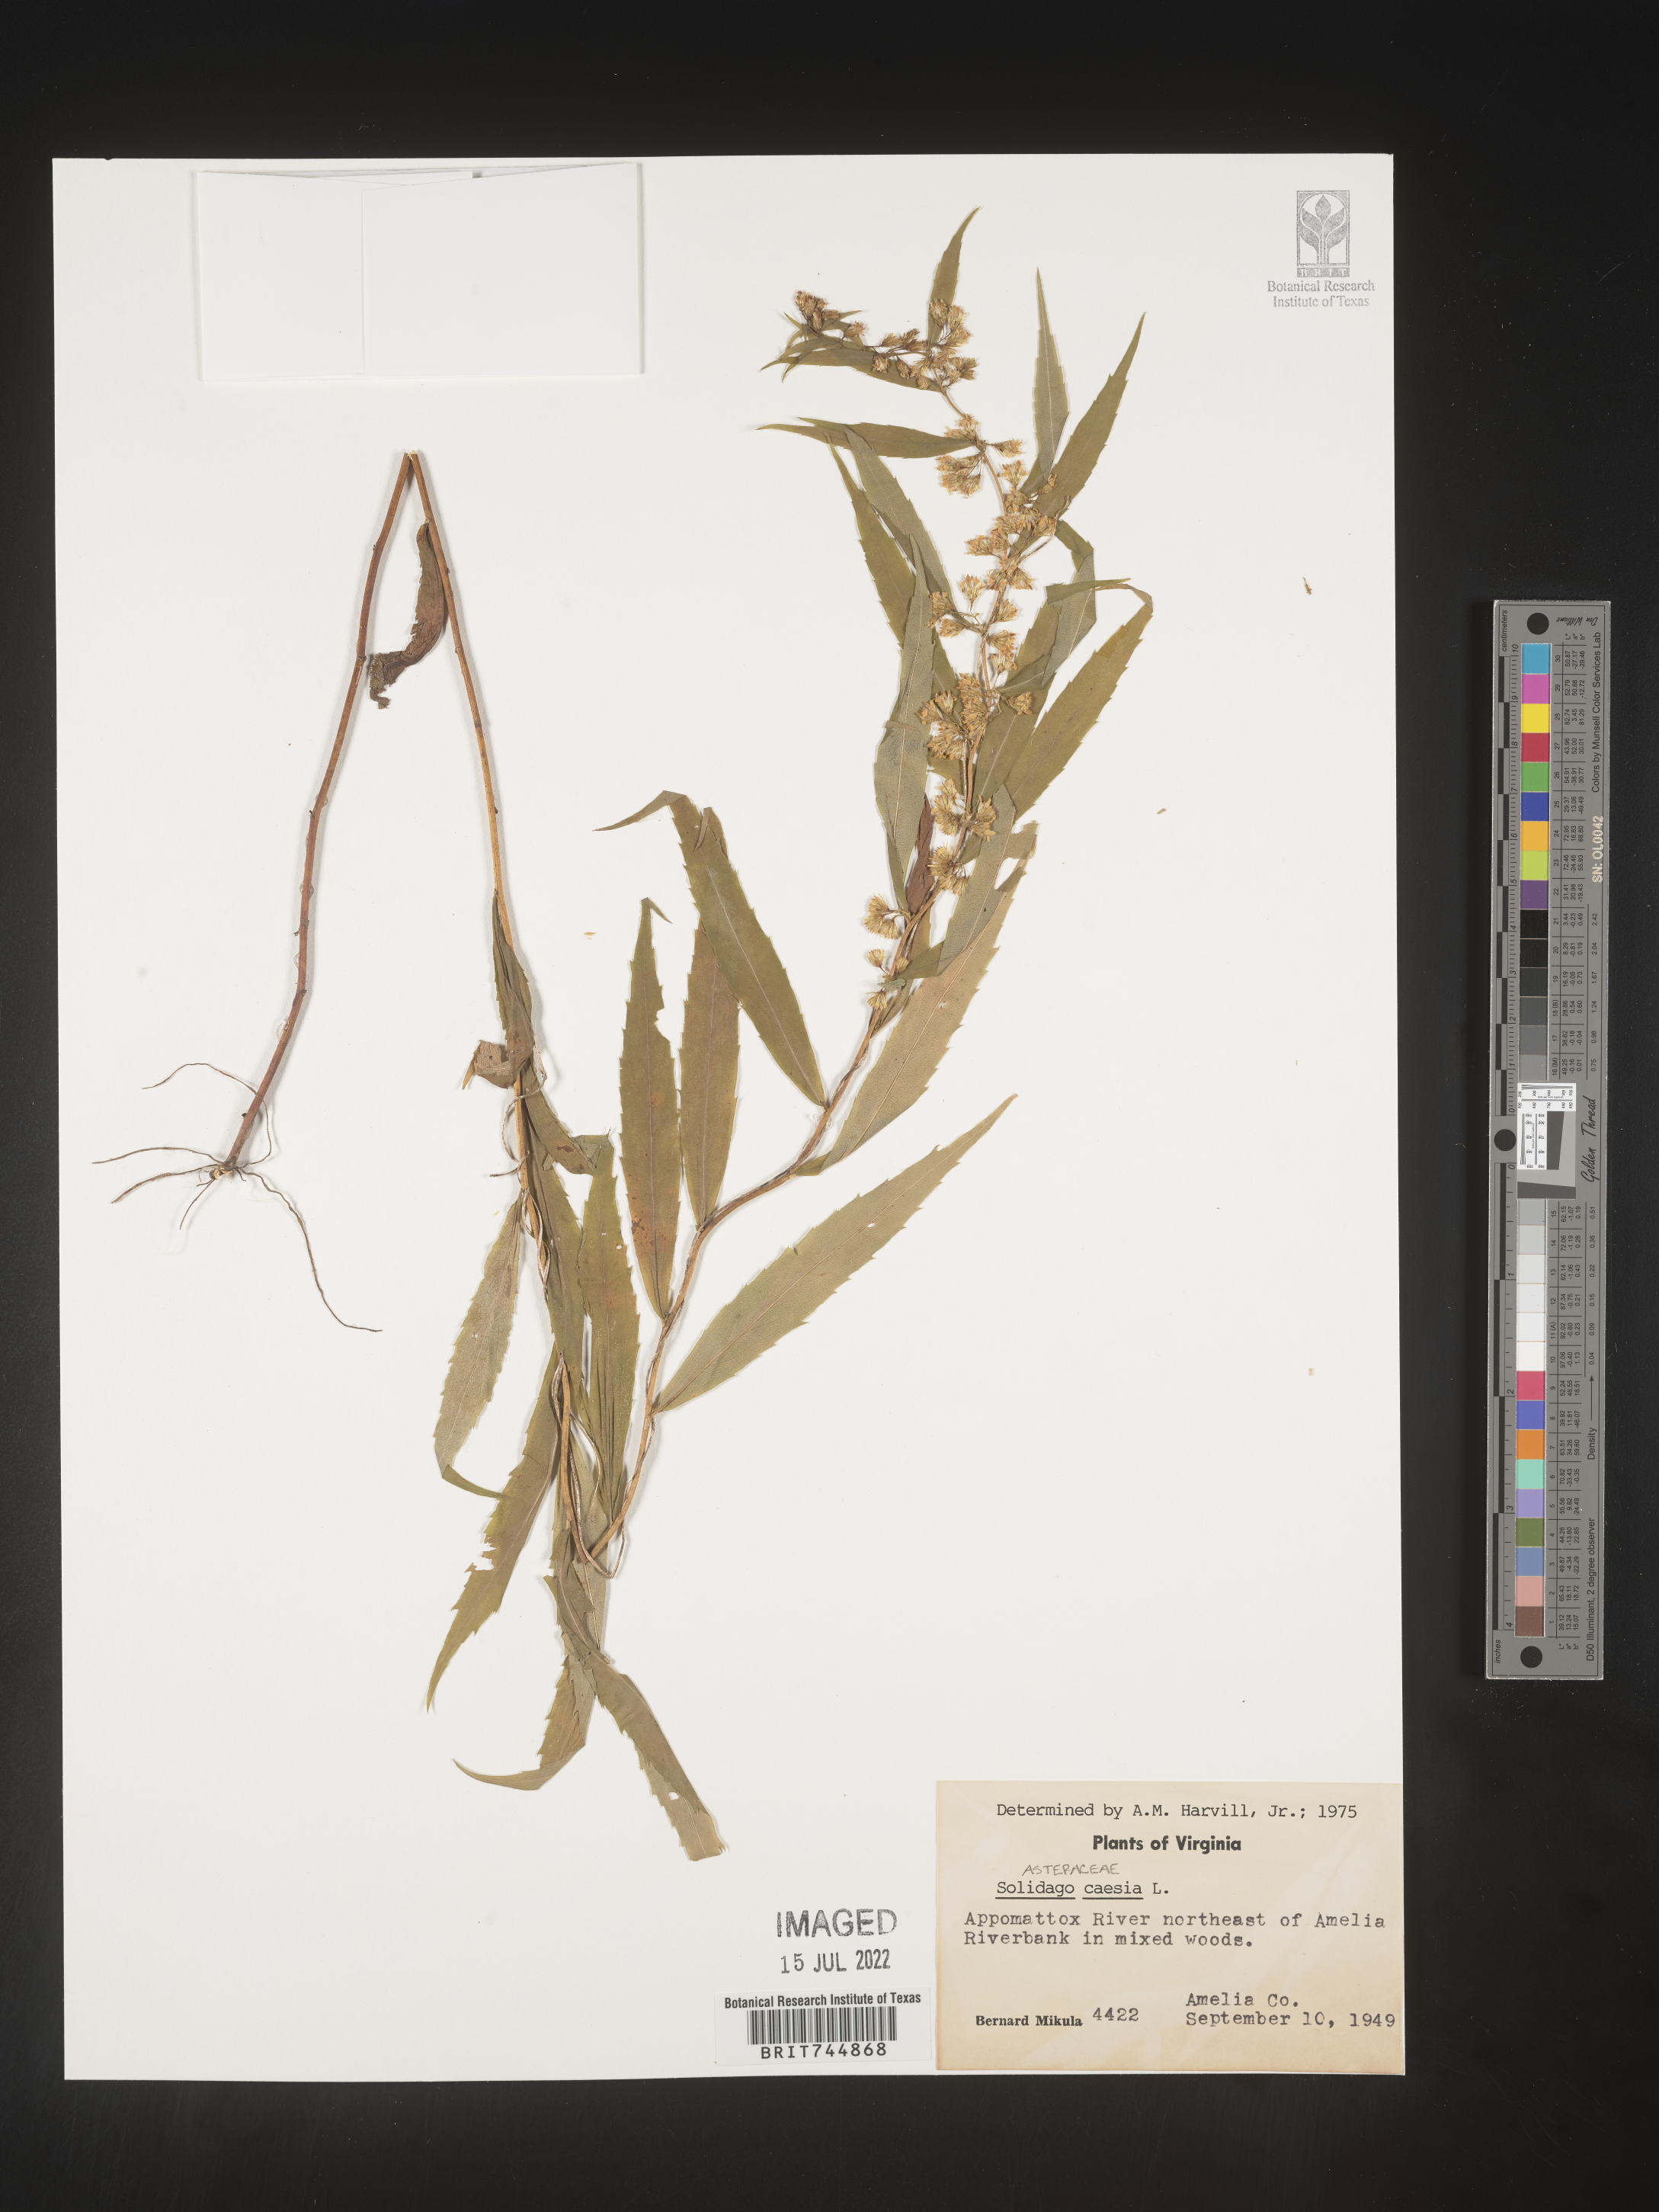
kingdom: Plantae
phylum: Tracheophyta
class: Magnoliopsida
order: Asterales
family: Asteraceae
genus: Solidago
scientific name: Solidago caesia
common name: Woodland goldenrod
